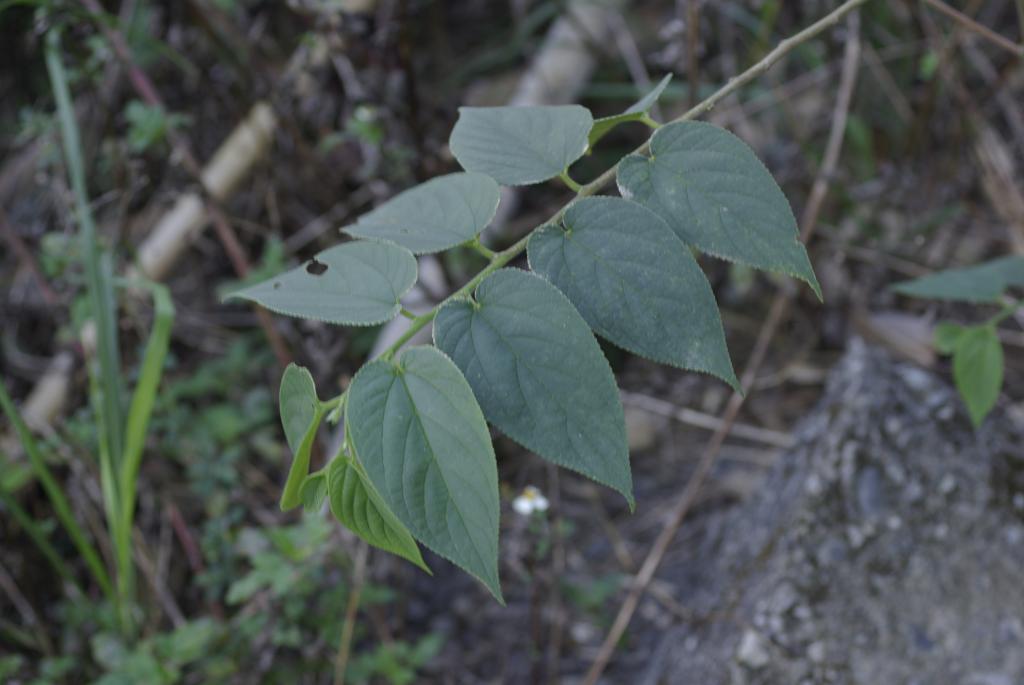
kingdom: Plantae
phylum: Tracheophyta
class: Magnoliopsida
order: Rosales
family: Cannabaceae
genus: Trema
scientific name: Trema orientale
